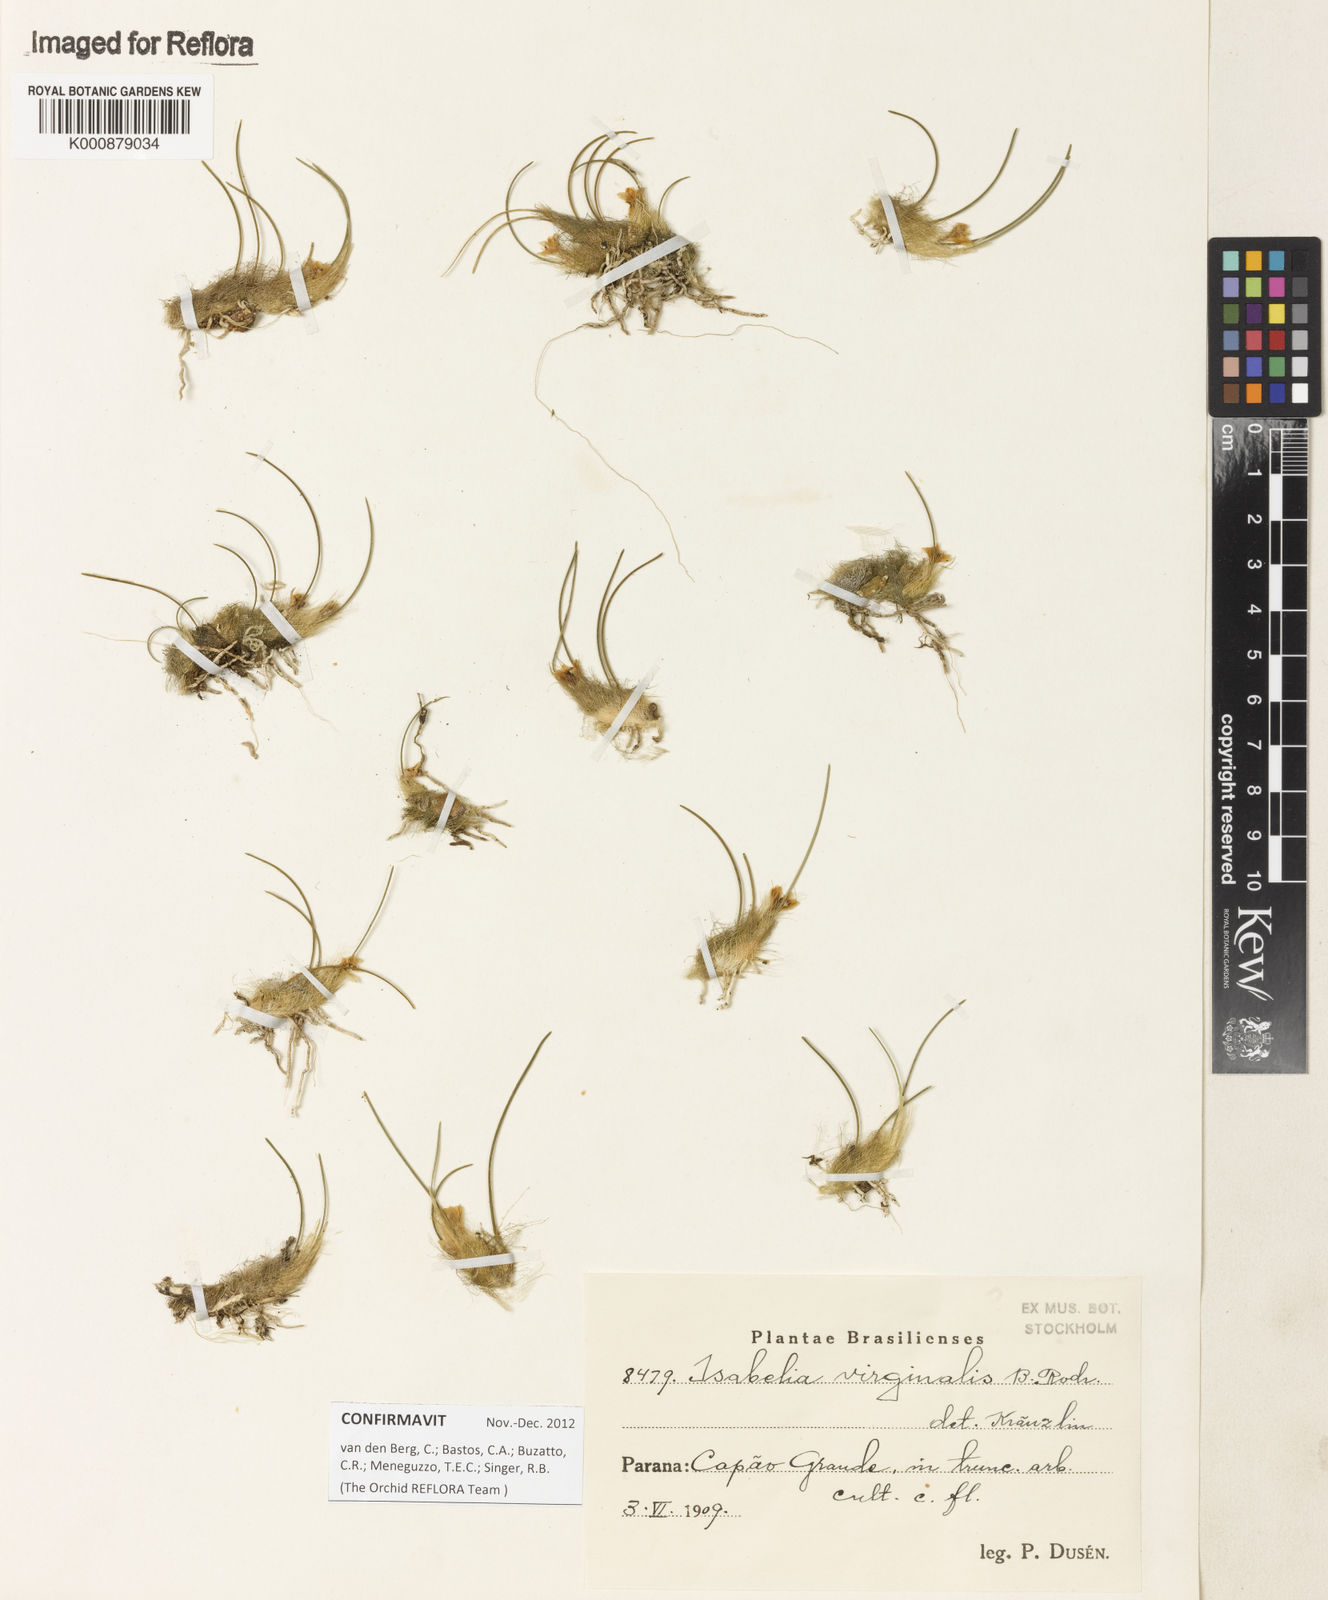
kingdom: Plantae
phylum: Tracheophyta
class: Liliopsida
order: Asparagales
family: Orchidaceae
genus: Isabelia
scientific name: Isabelia virginalis
